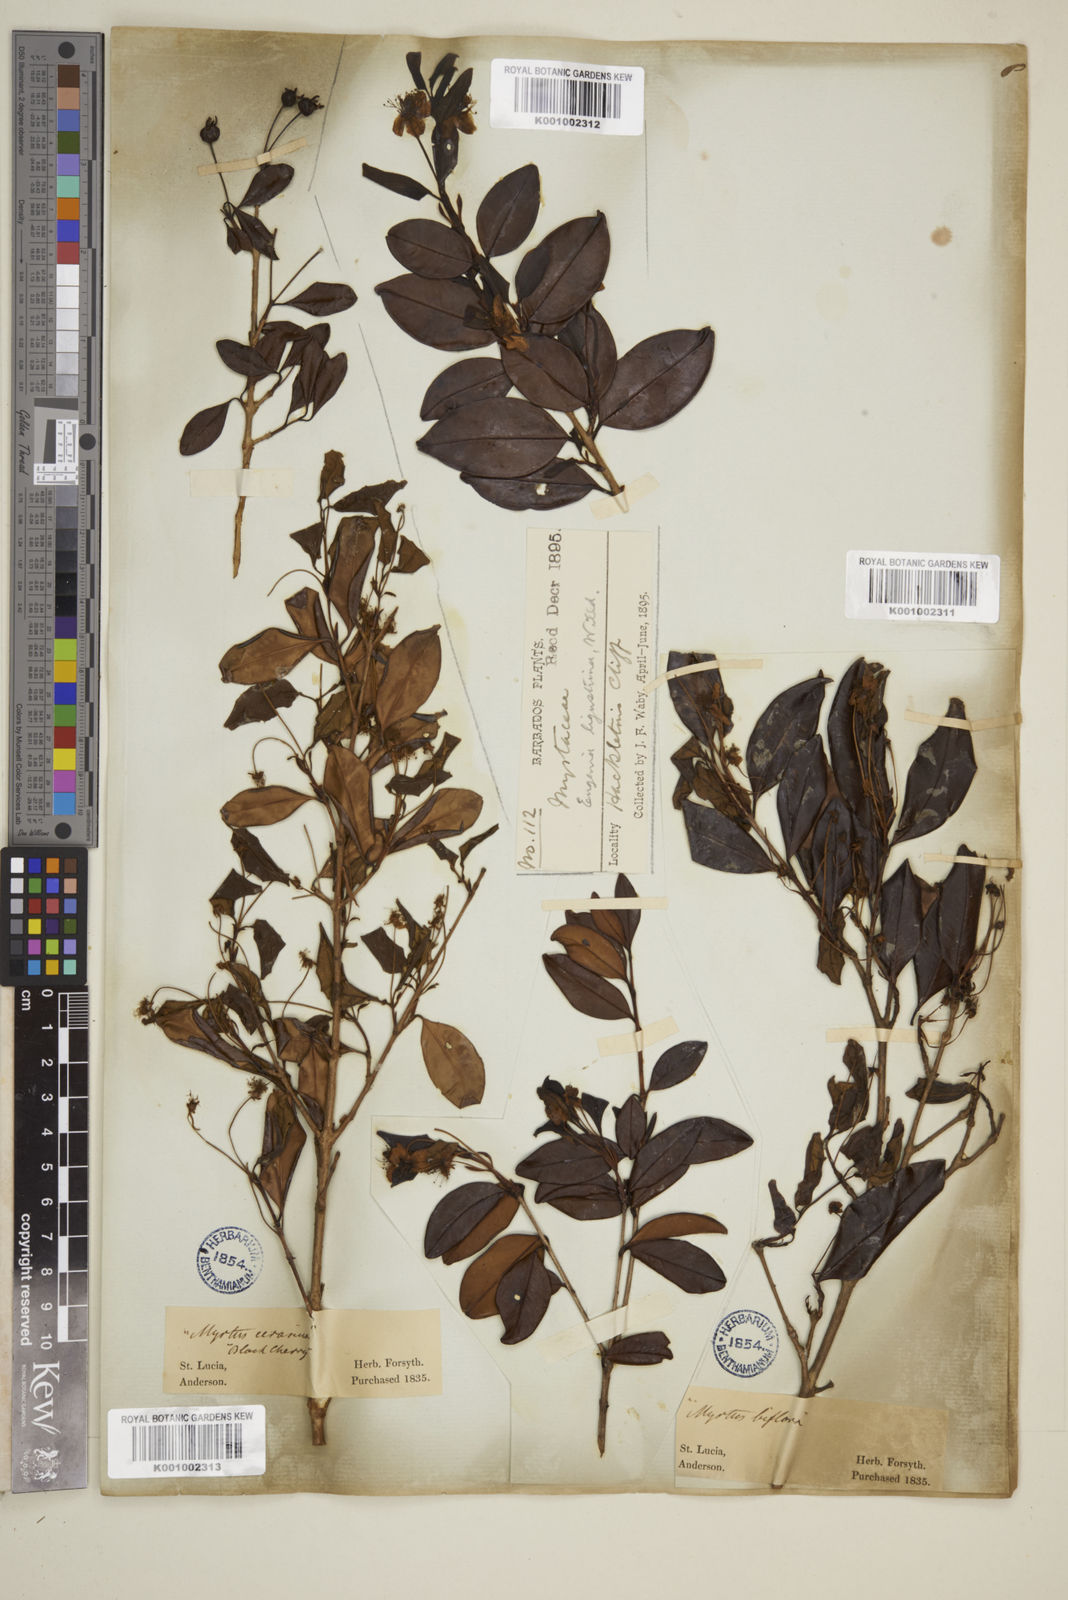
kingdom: Plantae
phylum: Tracheophyta
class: Magnoliopsida
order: Myrtales
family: Myrtaceae
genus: Eugenia
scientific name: Eugenia ligustrina
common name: Privet stopper
